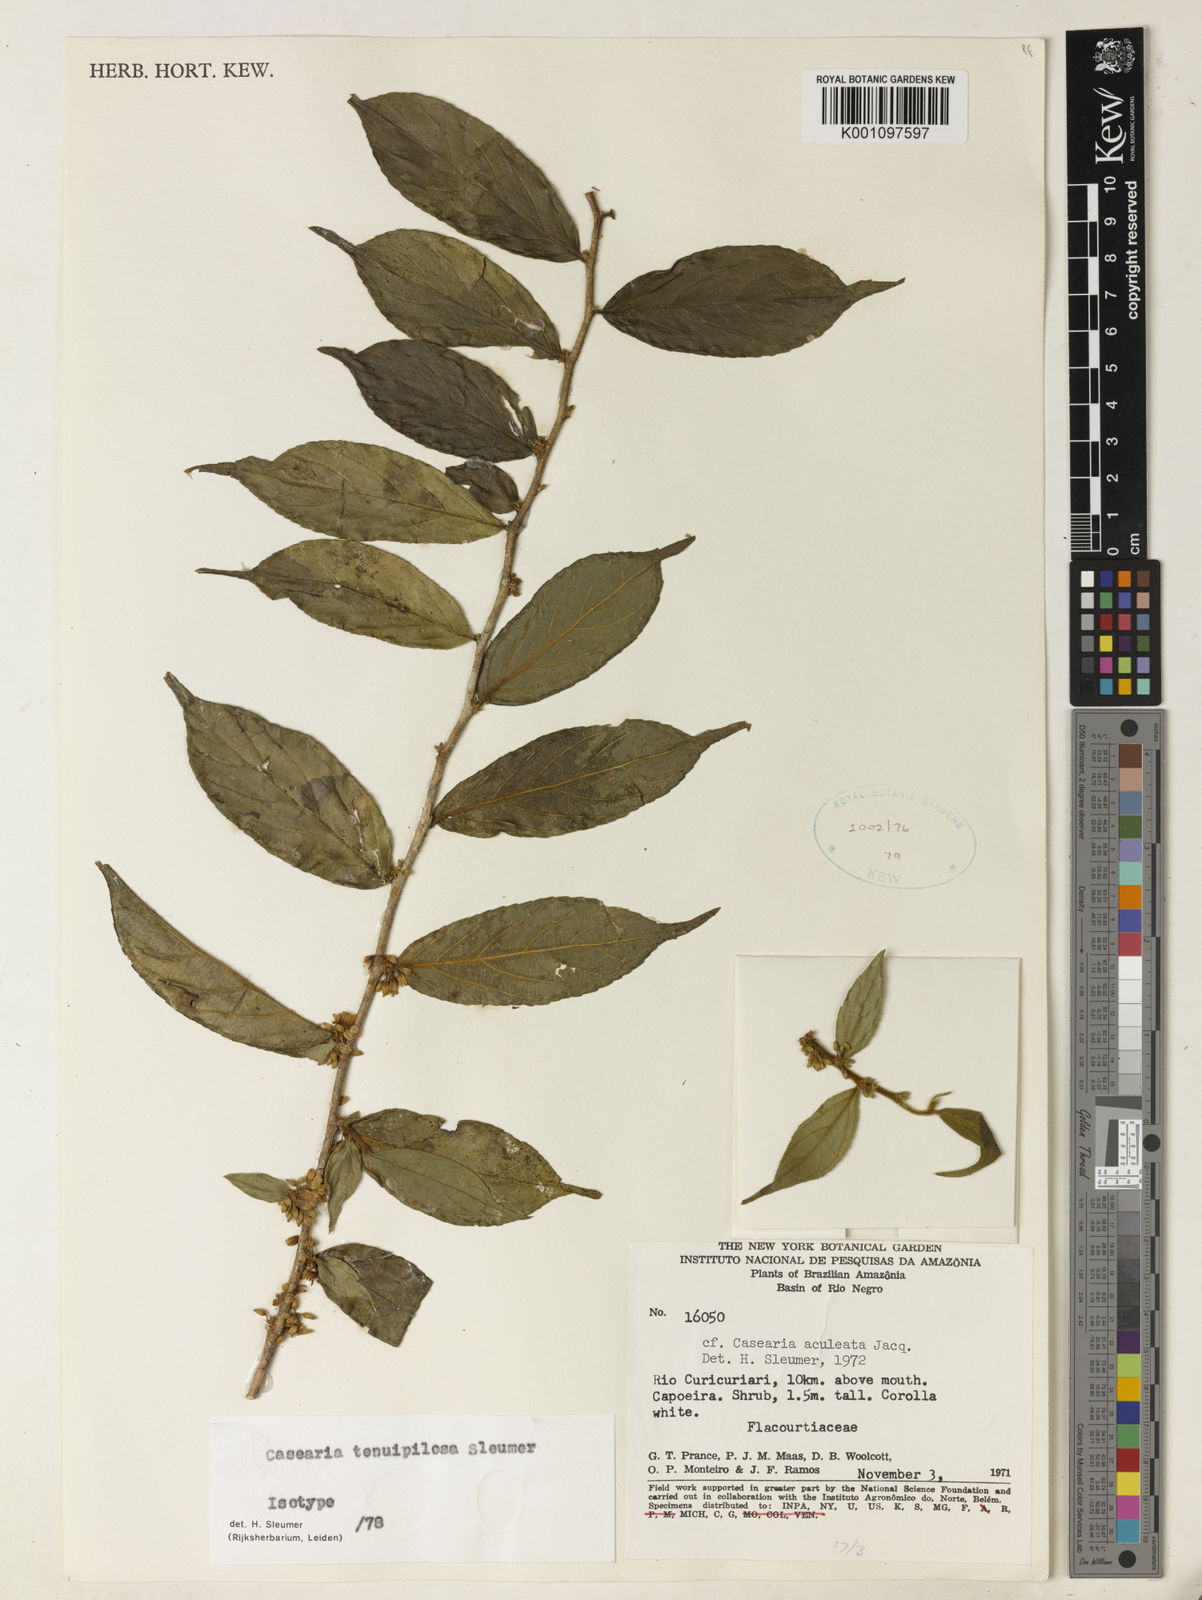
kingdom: Plantae
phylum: Tracheophyta
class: Magnoliopsida
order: Malpighiales
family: Salicaceae
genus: Casearia
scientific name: Casearia tenuipilosa
